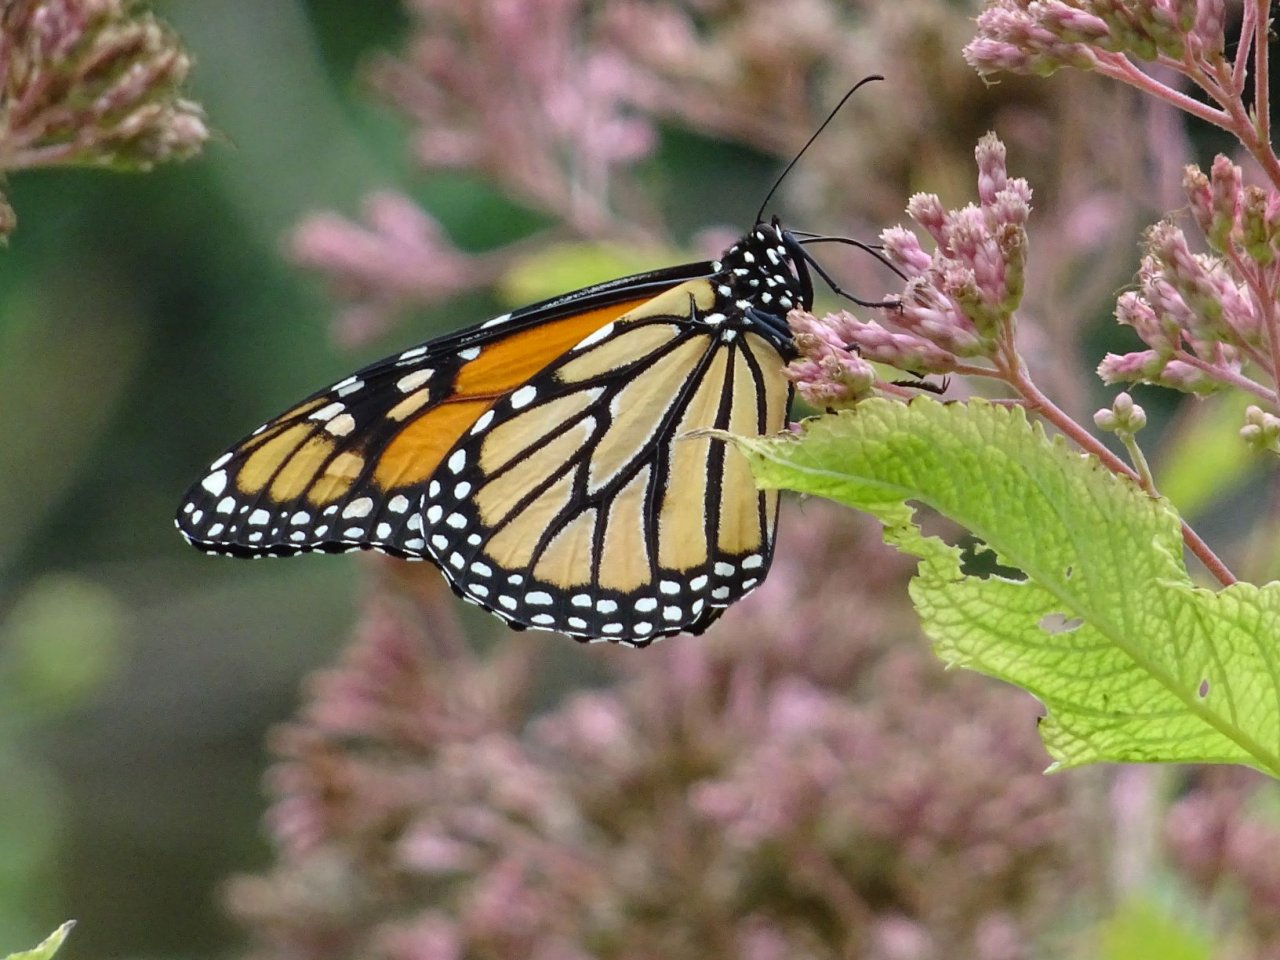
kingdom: Animalia
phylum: Arthropoda
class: Insecta
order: Lepidoptera
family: Nymphalidae
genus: Danaus
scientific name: Danaus plexippus
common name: Monarch
